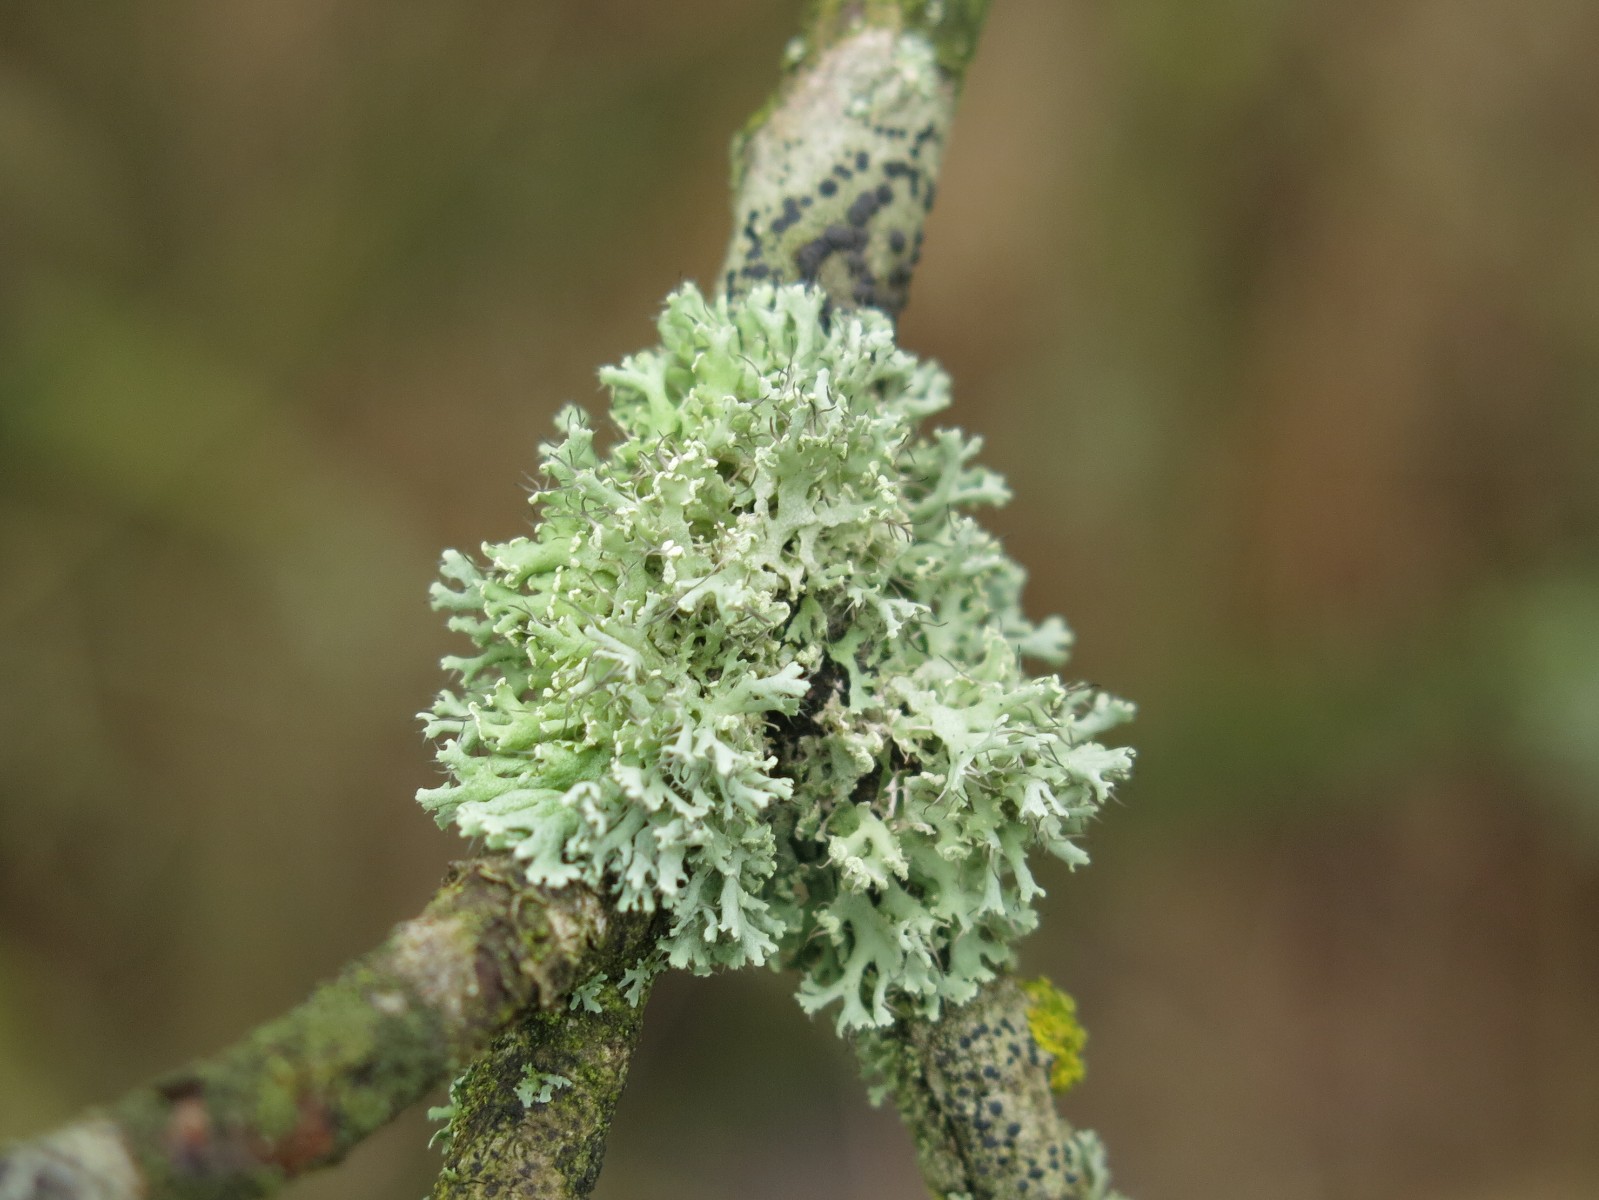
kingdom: Fungi
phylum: Ascomycota
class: Lecanoromycetes
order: Caliciales
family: Physciaceae
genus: Physcia
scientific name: Physcia tenella
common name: spæd rosetlav
